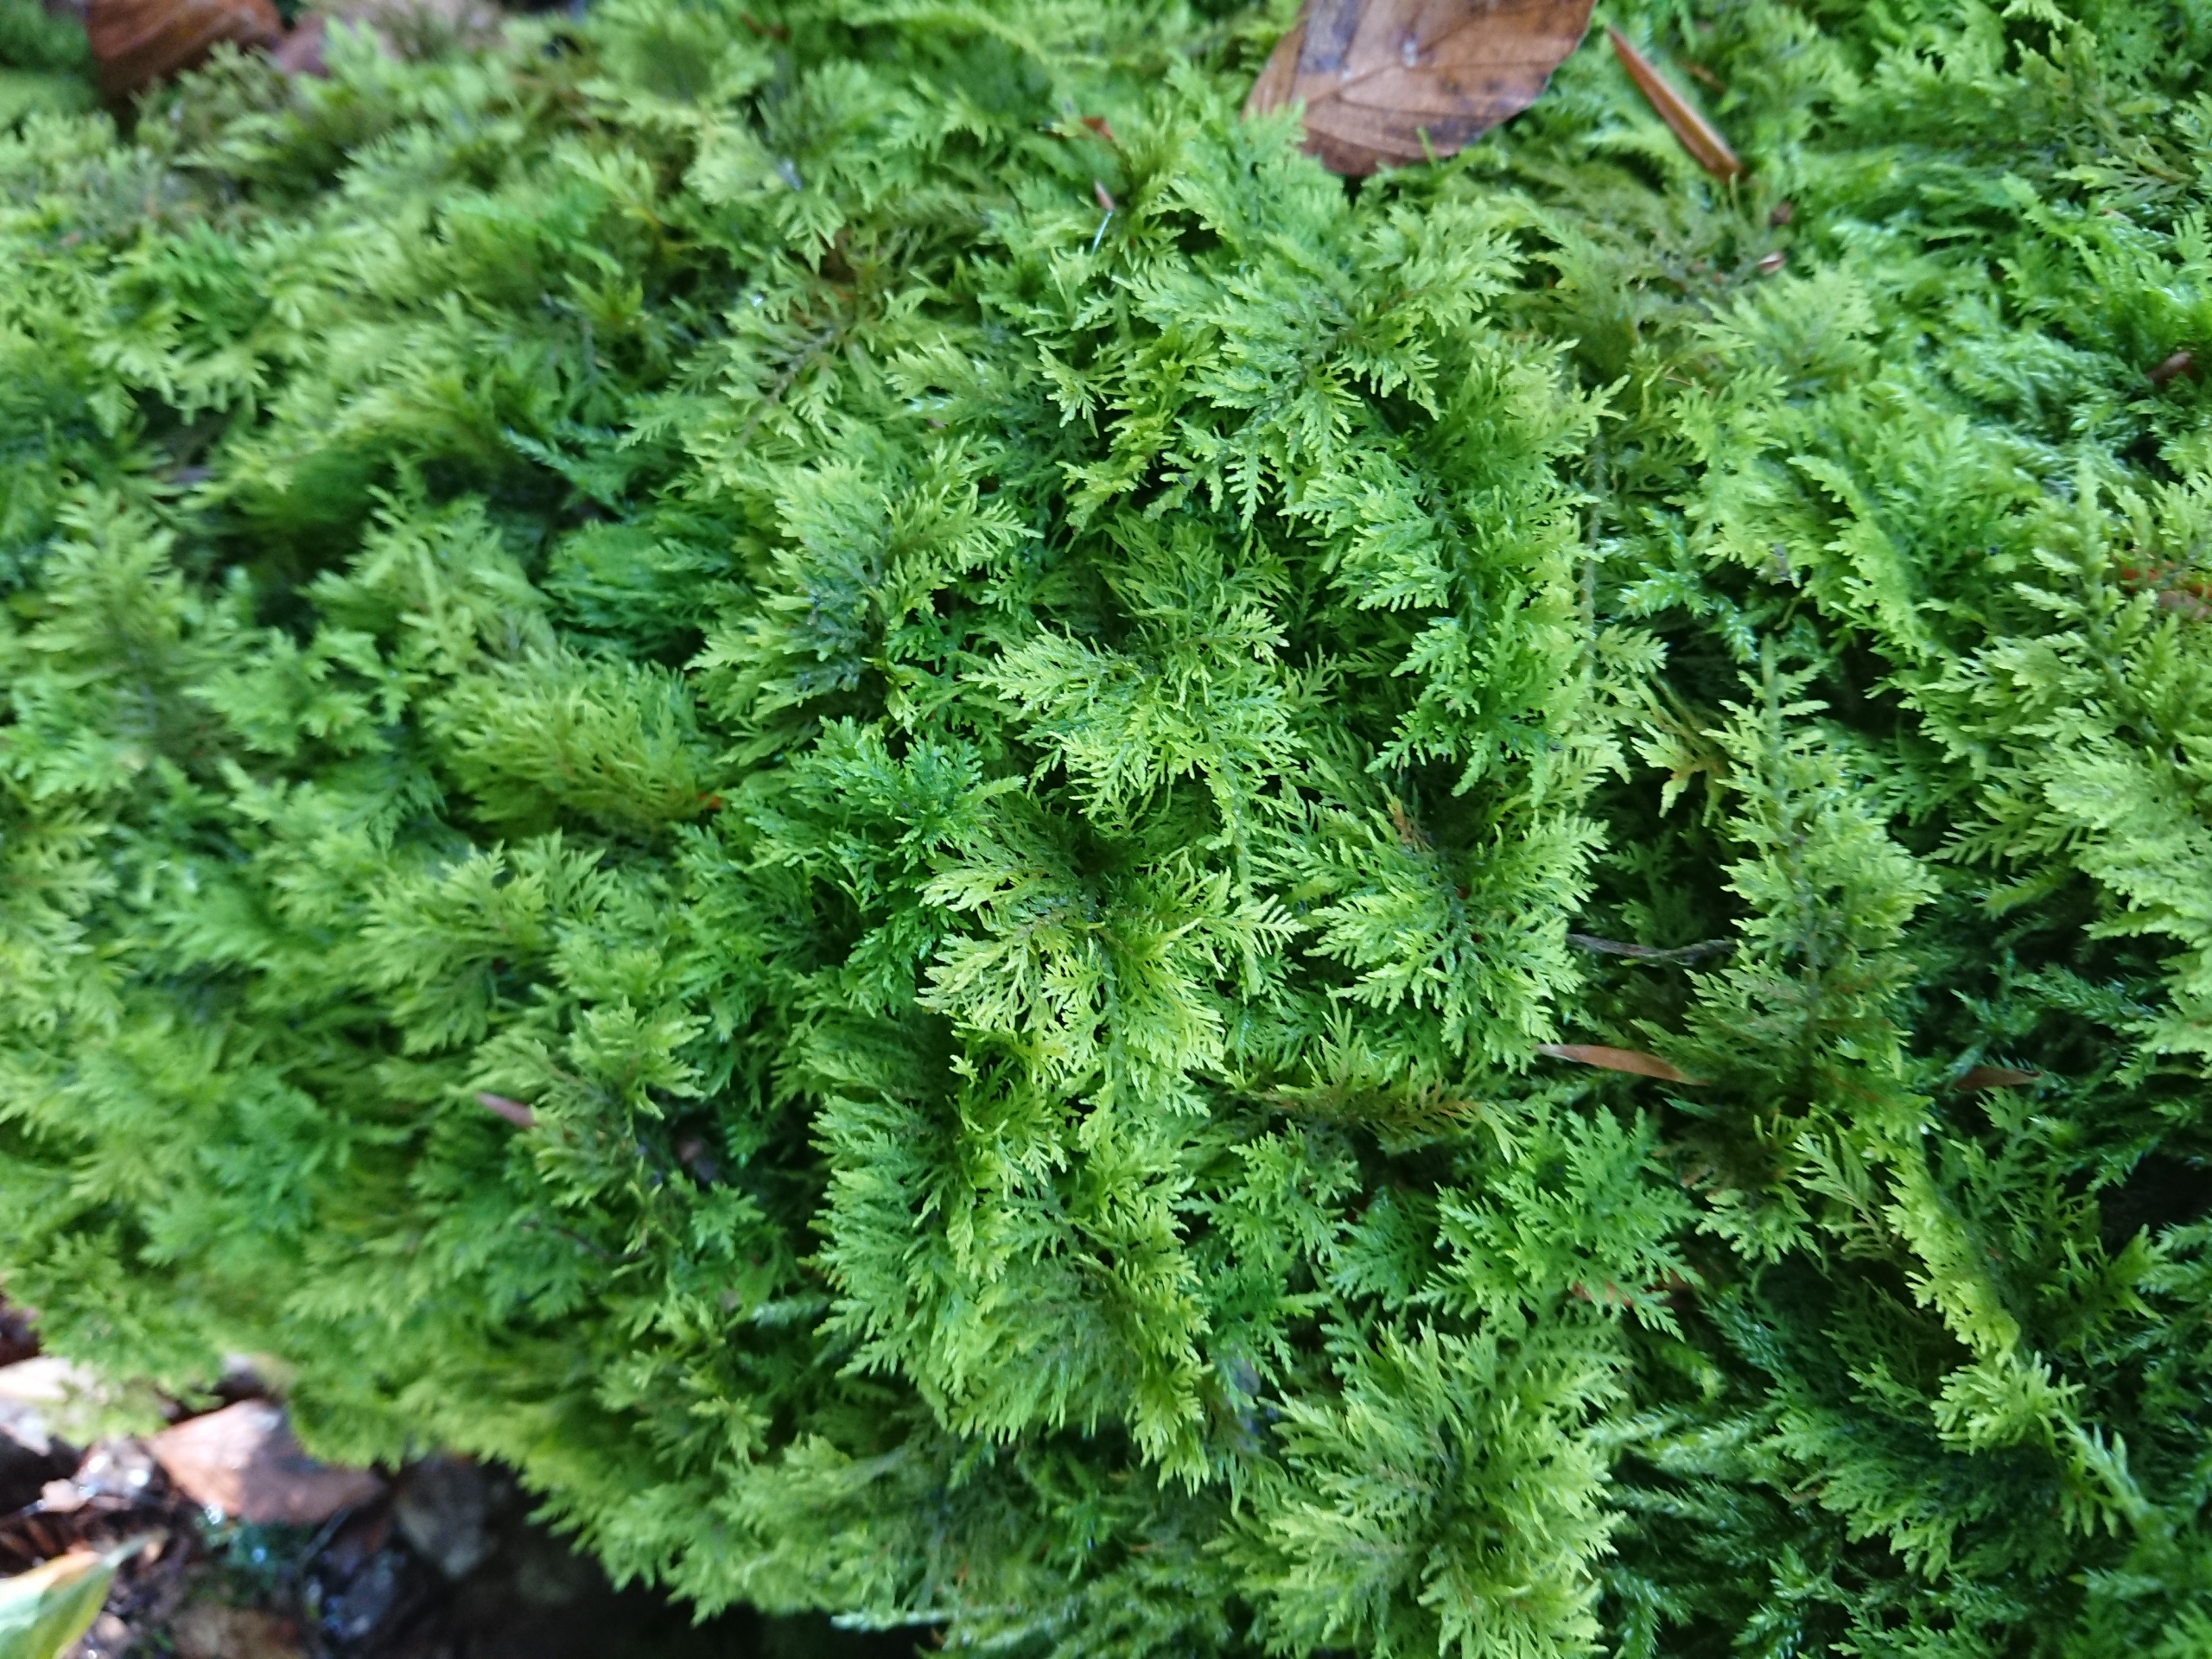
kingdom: Plantae
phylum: Bryophyta
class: Bryopsida
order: Hypnales
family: Thuidiaceae
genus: Thuidium
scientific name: Thuidium tamariscinum
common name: Pryd-bregnemos
